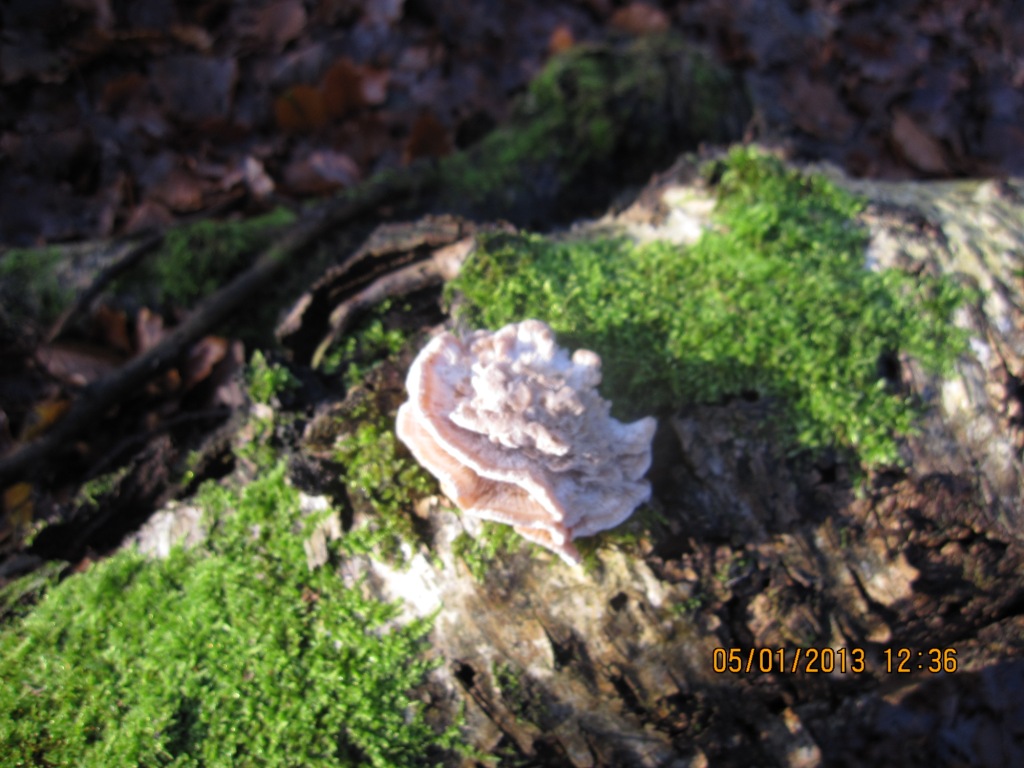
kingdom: Fungi
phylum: Basidiomycota
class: Agaricomycetes
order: Polyporales
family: Polyporaceae
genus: Trametes
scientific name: Trametes ochracea
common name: bæltet læderporesvamp
